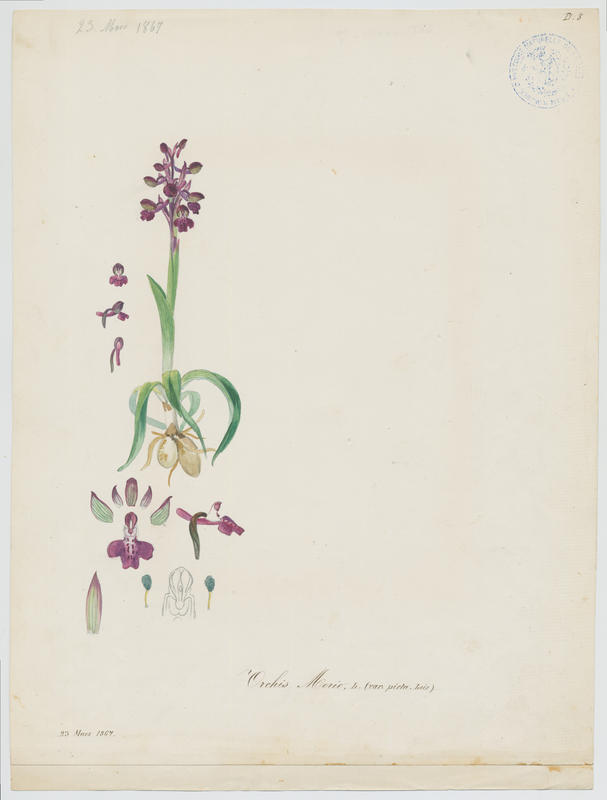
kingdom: Plantae
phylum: Tracheophyta
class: Liliopsida
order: Asparagales
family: Orchidaceae
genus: Anacamptis
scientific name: Anacamptis morio
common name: Green-winged orchid
